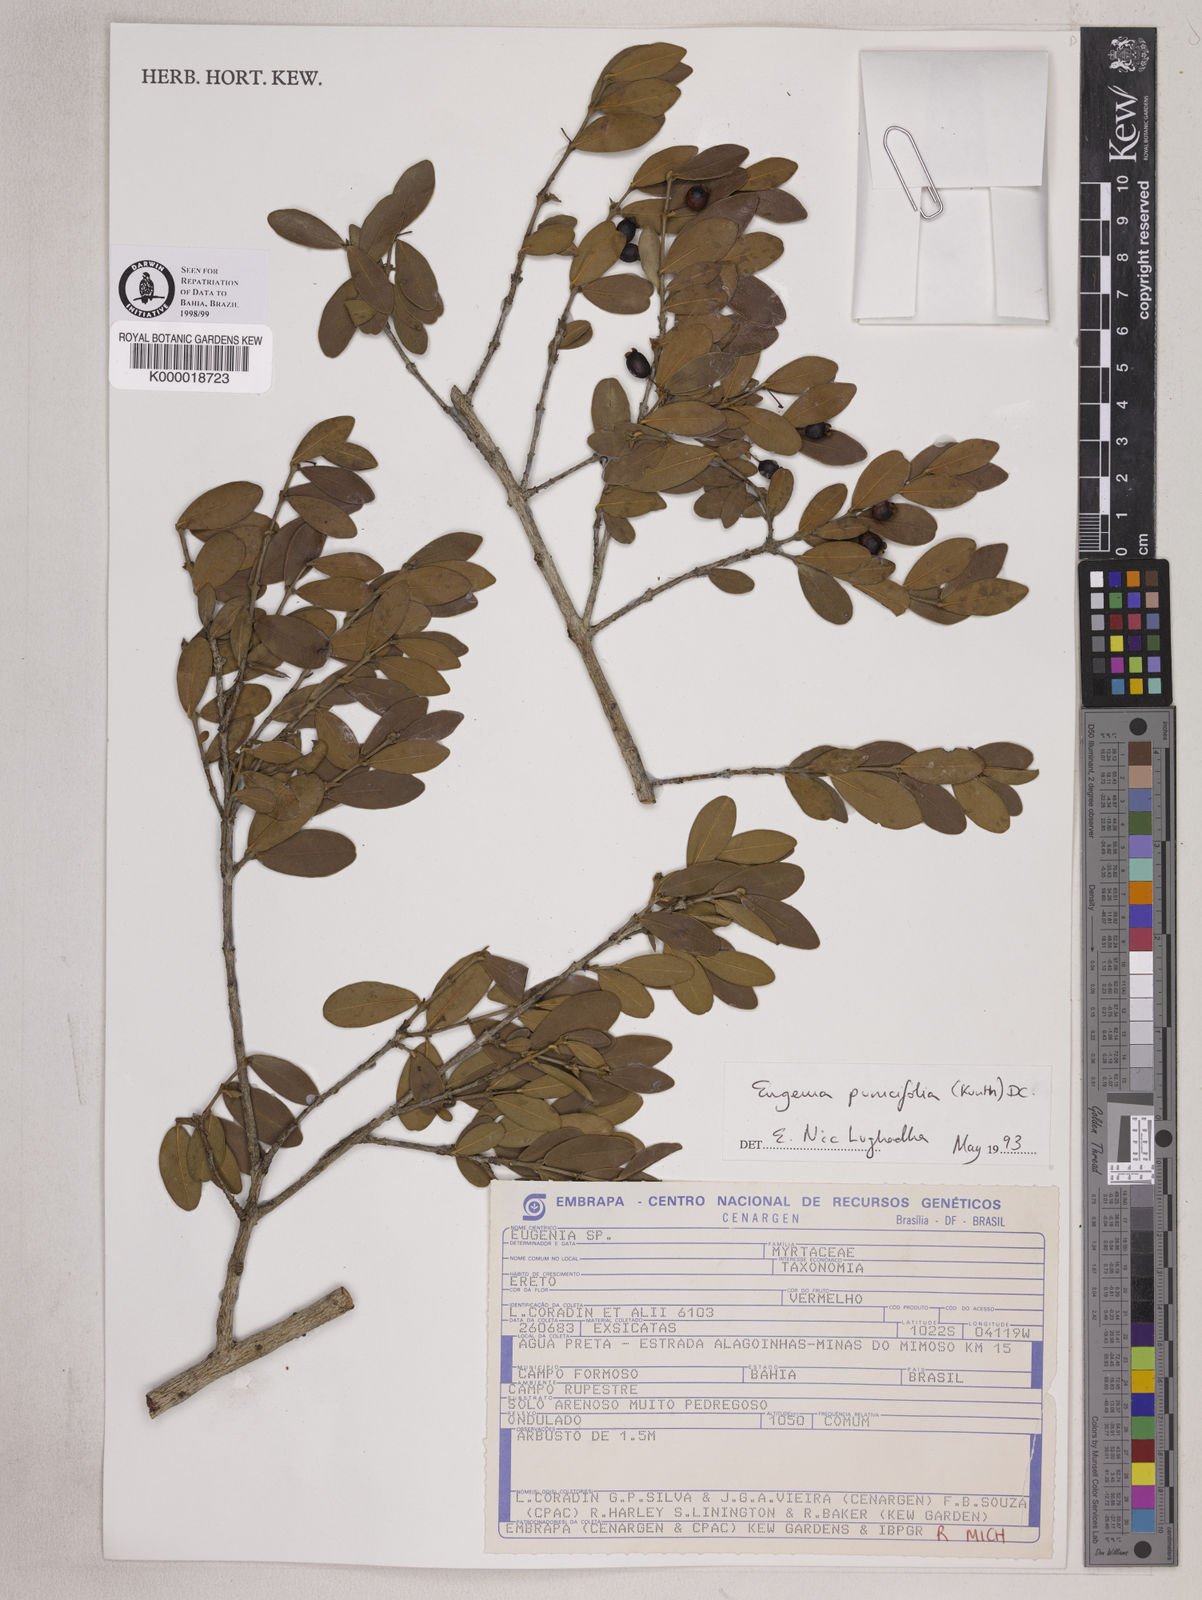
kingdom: Plantae
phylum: Tracheophyta
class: Magnoliopsida
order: Myrtales
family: Myrtaceae
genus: Eugenia
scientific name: Eugenia punicifolia
